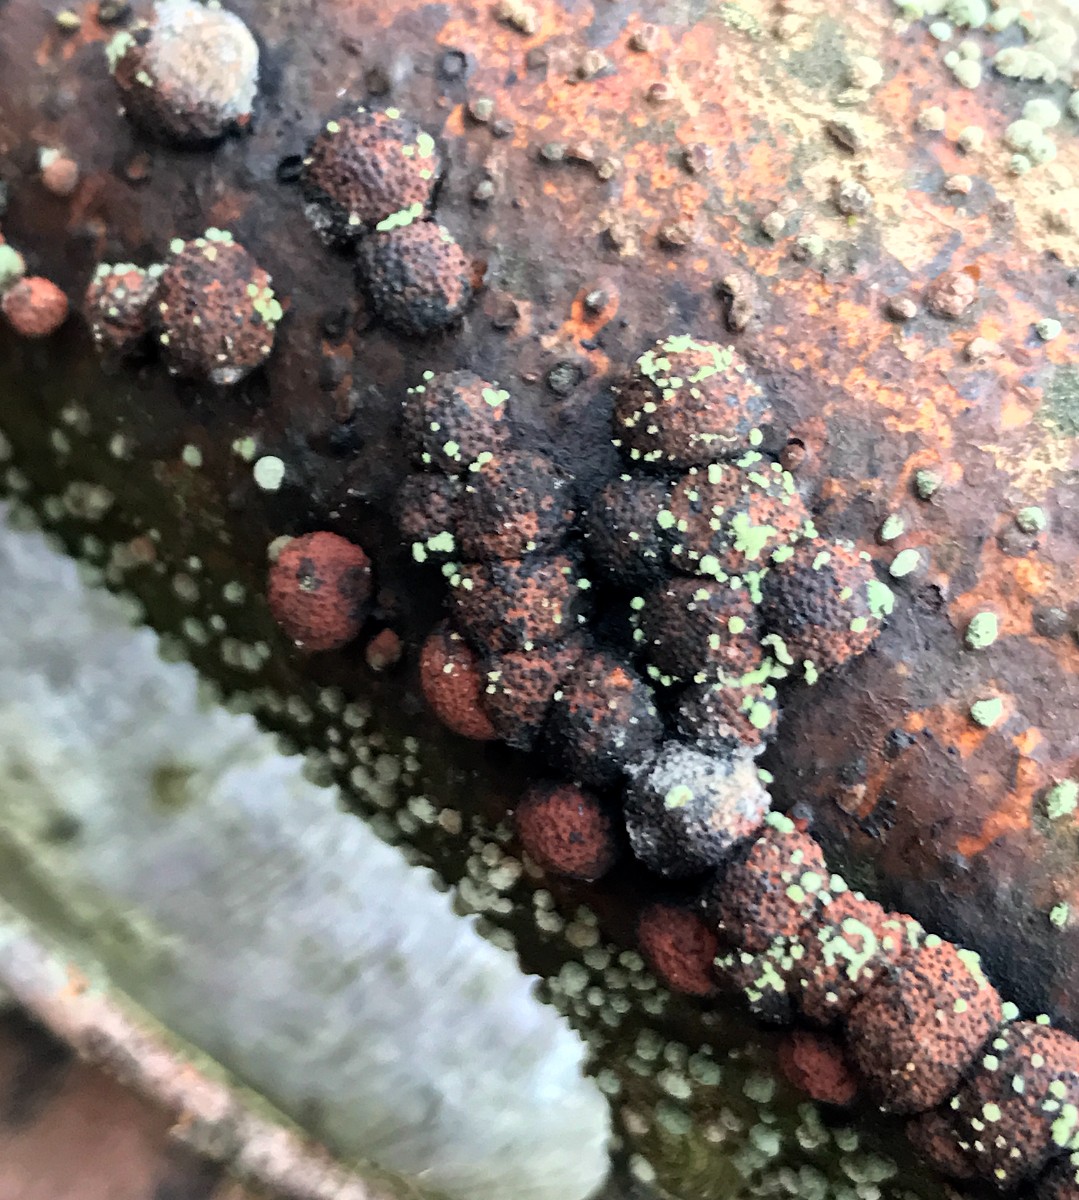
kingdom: Fungi
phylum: Ascomycota
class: Sordariomycetes
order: Xylariales
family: Hypoxylaceae
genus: Hypoxylon
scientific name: Hypoxylon fragiforme
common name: kuljordbær
